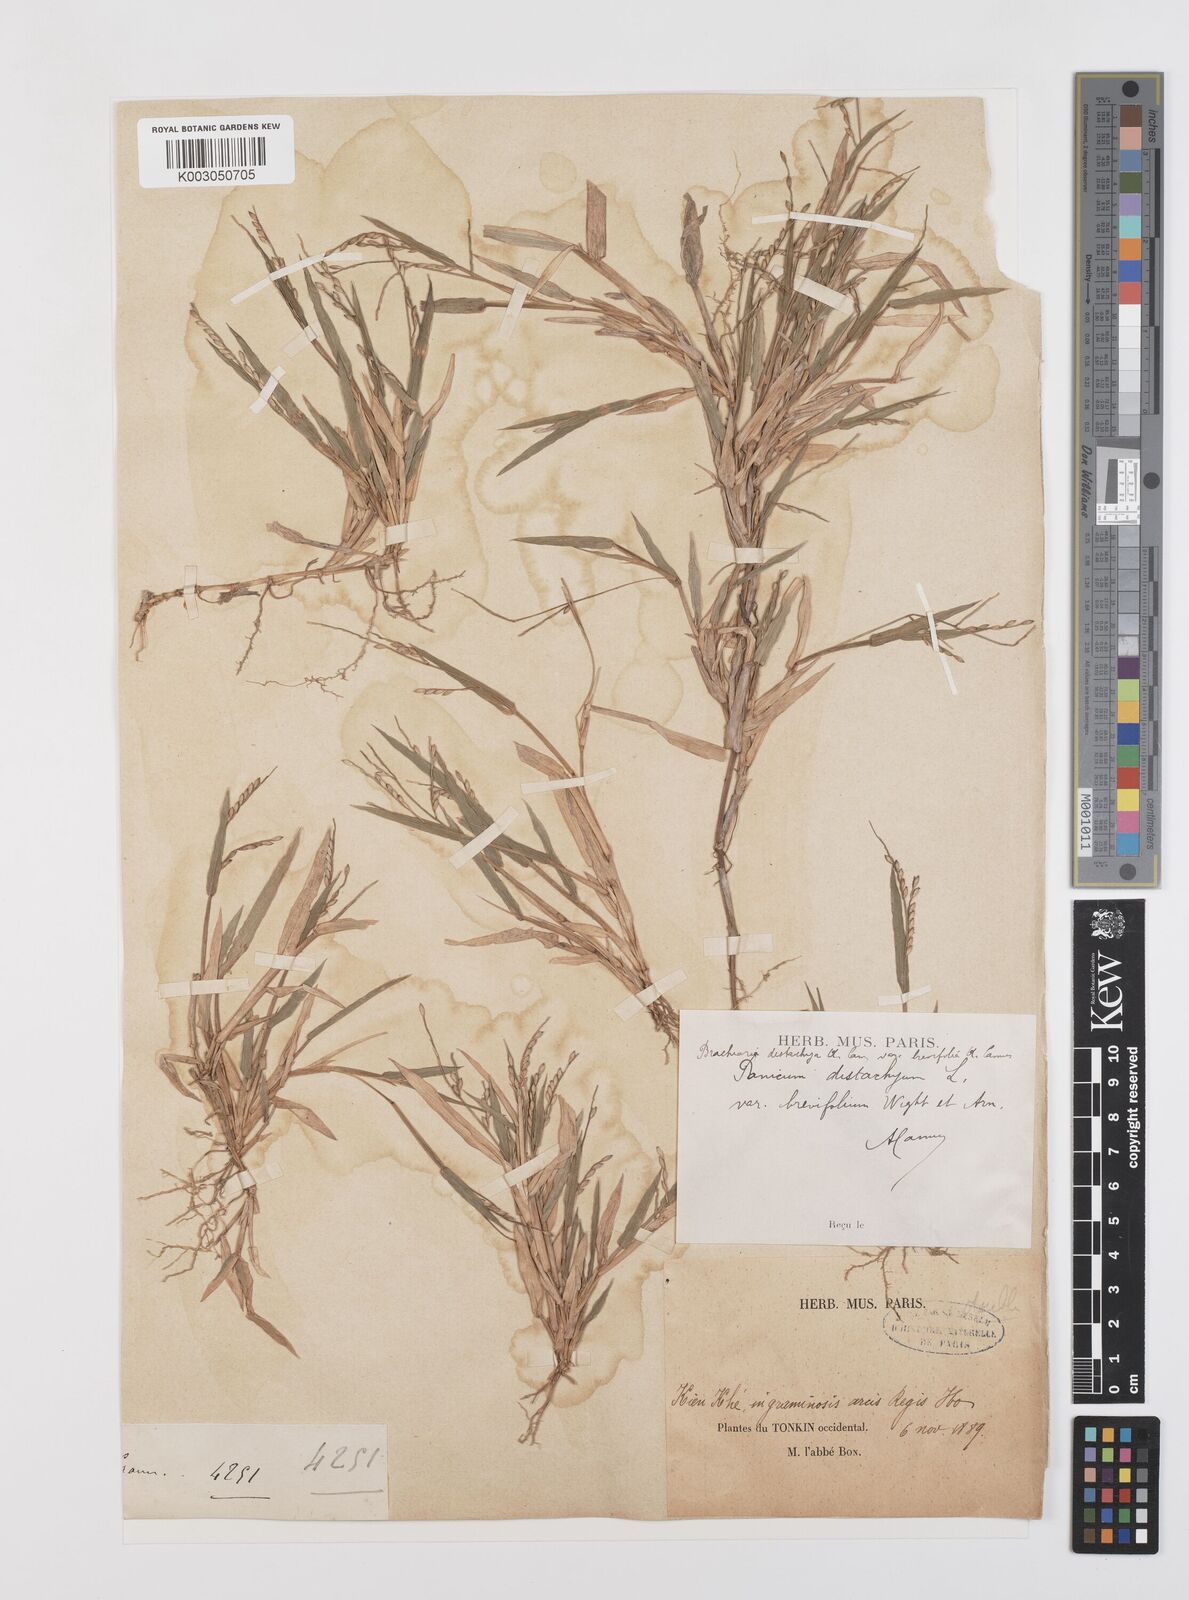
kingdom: Plantae
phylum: Tracheophyta
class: Liliopsida
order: Poales
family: Poaceae
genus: Urochloa
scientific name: Urochloa subquadripara
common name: Armgrass millet
